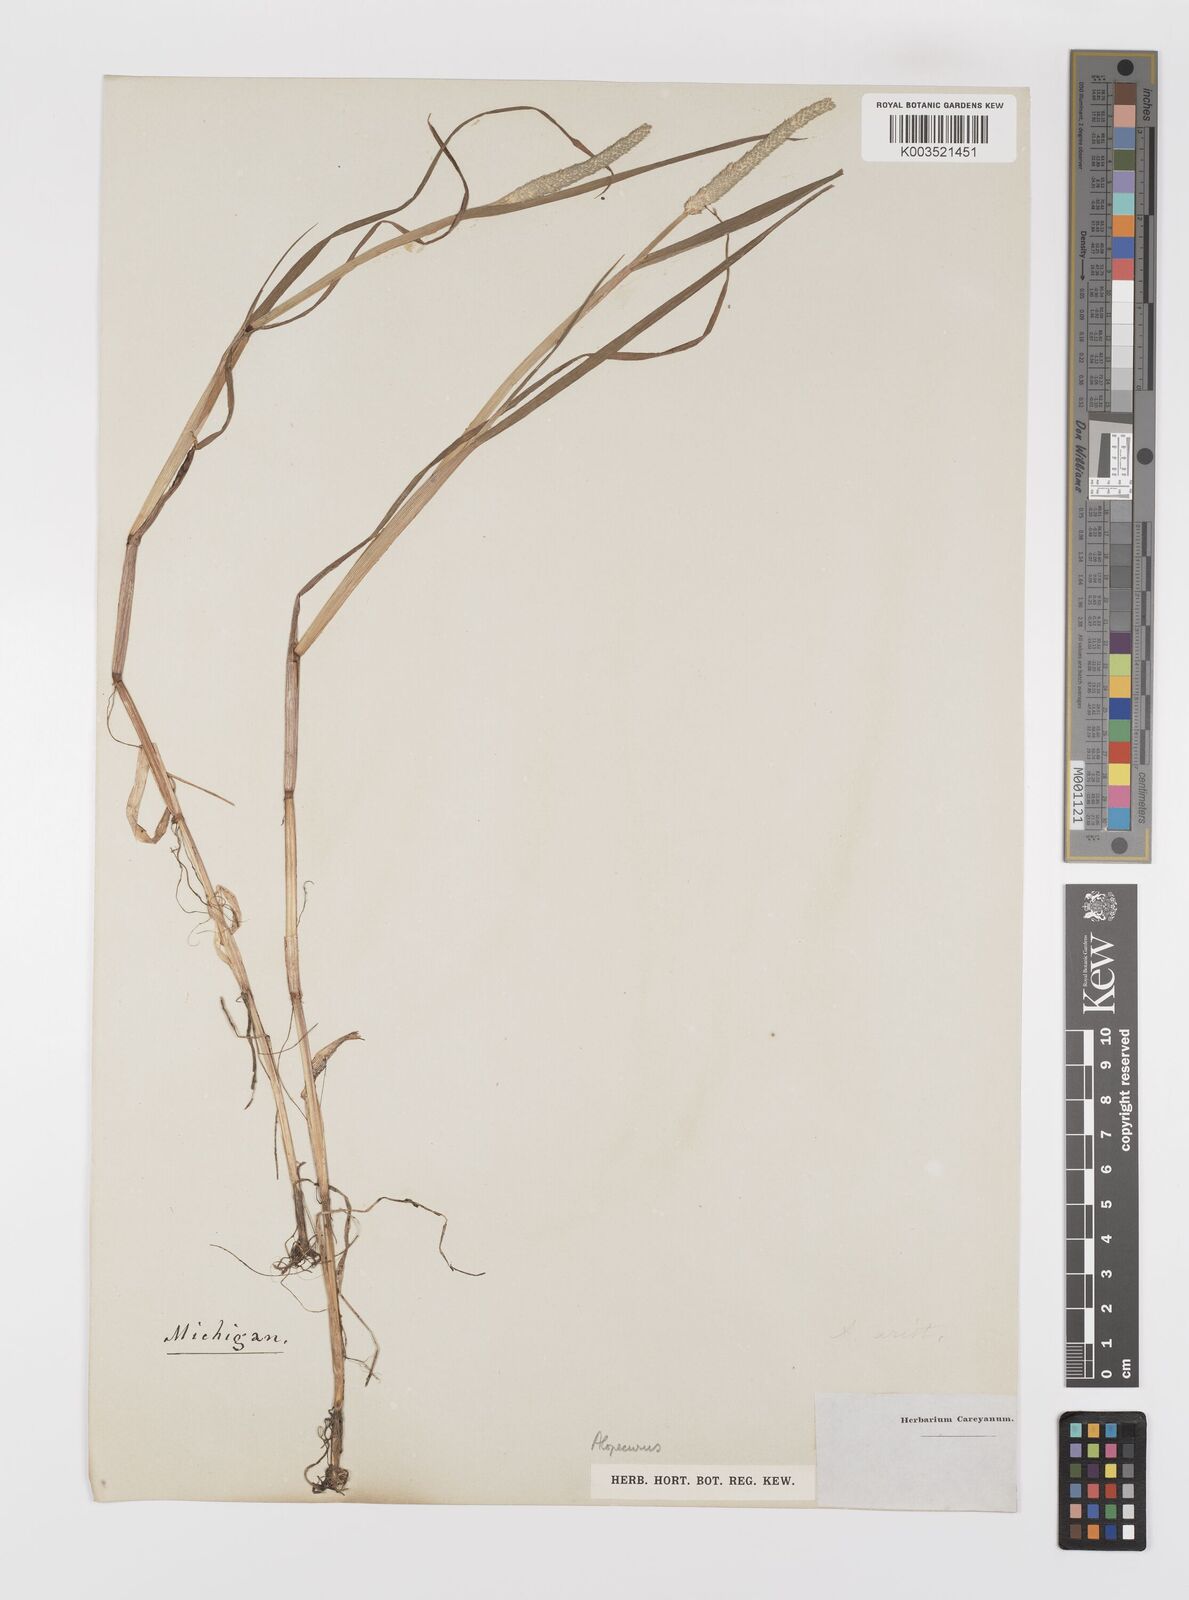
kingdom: Plantae
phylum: Tracheophyta
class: Liliopsida
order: Poales
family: Poaceae
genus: Alopecurus
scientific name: Alopecurus
